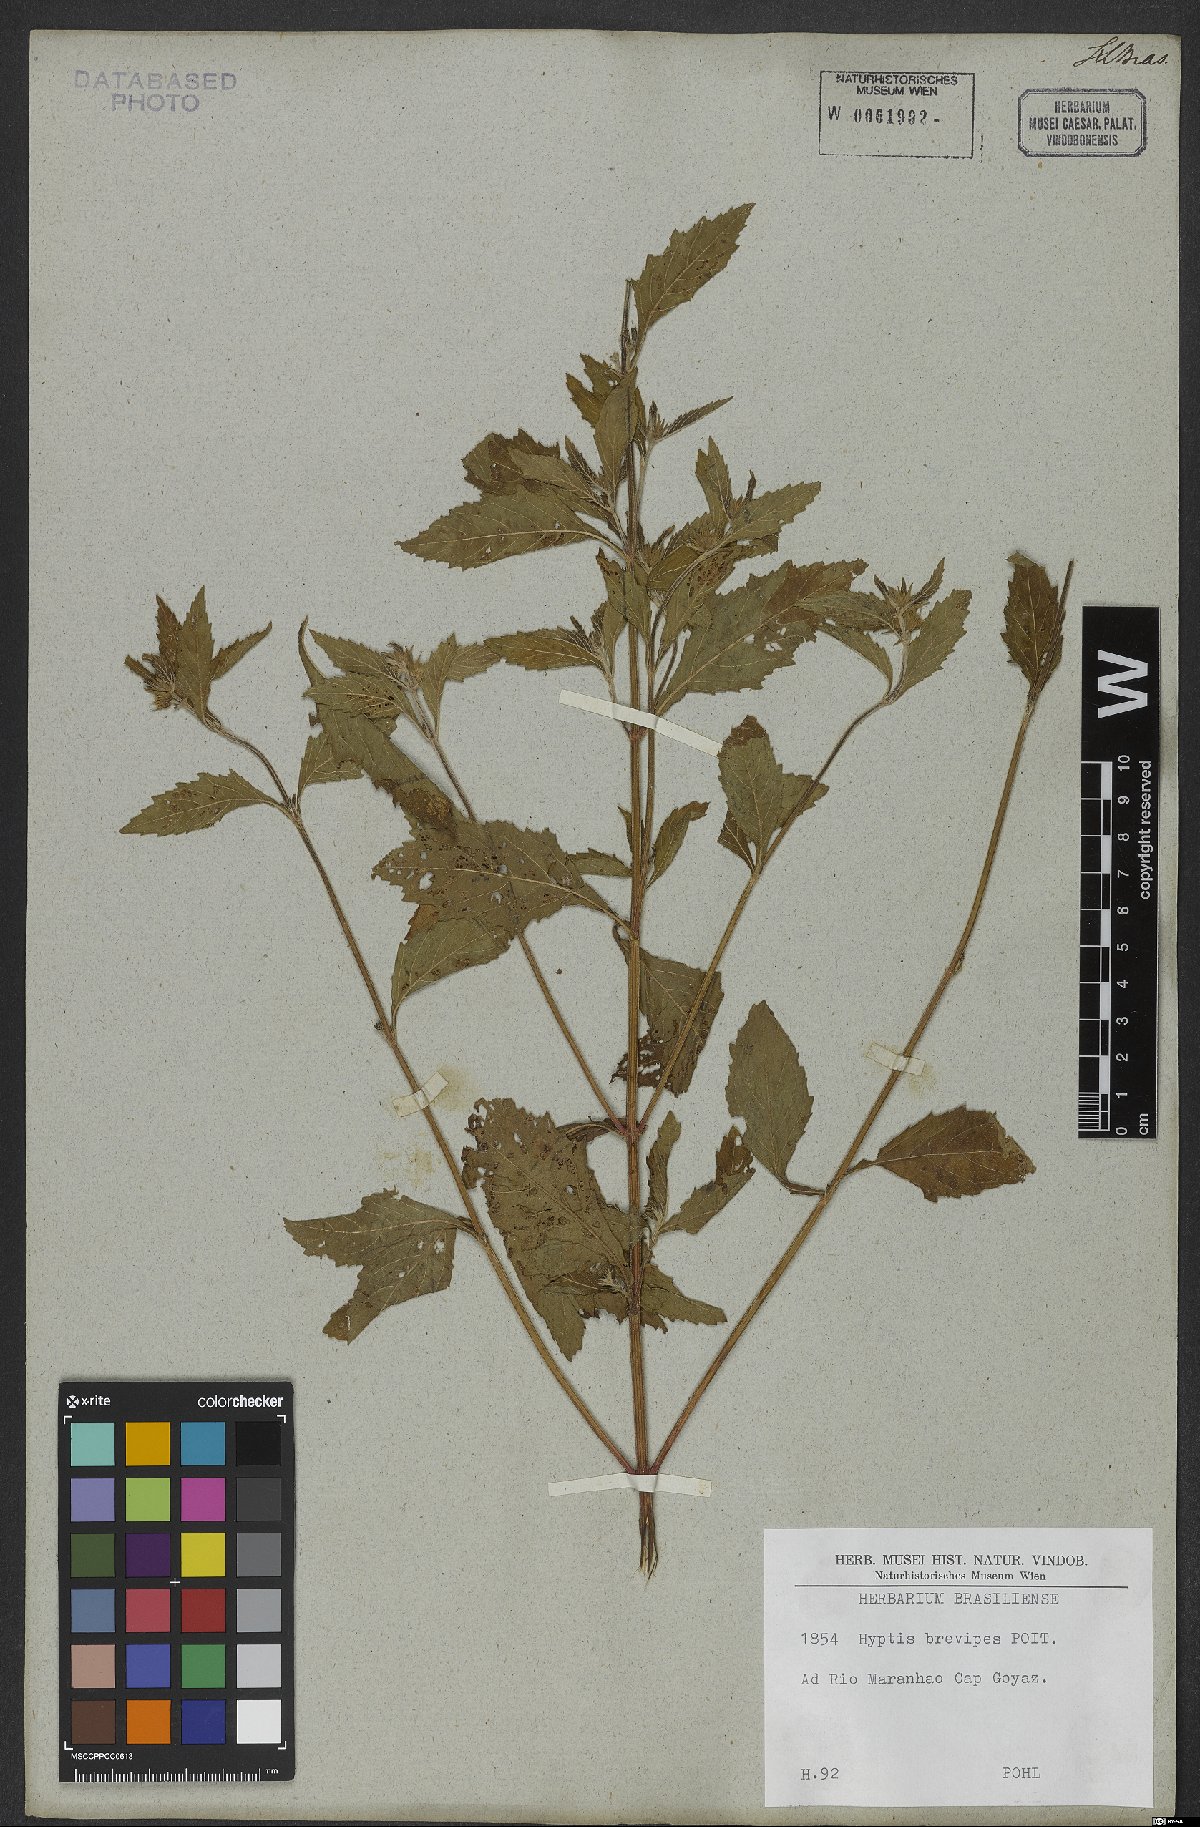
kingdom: Plantae
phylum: Tracheophyta
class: Magnoliopsida
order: Lamiales
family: Lamiaceae
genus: Hyptis
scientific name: Hyptis brevipes
